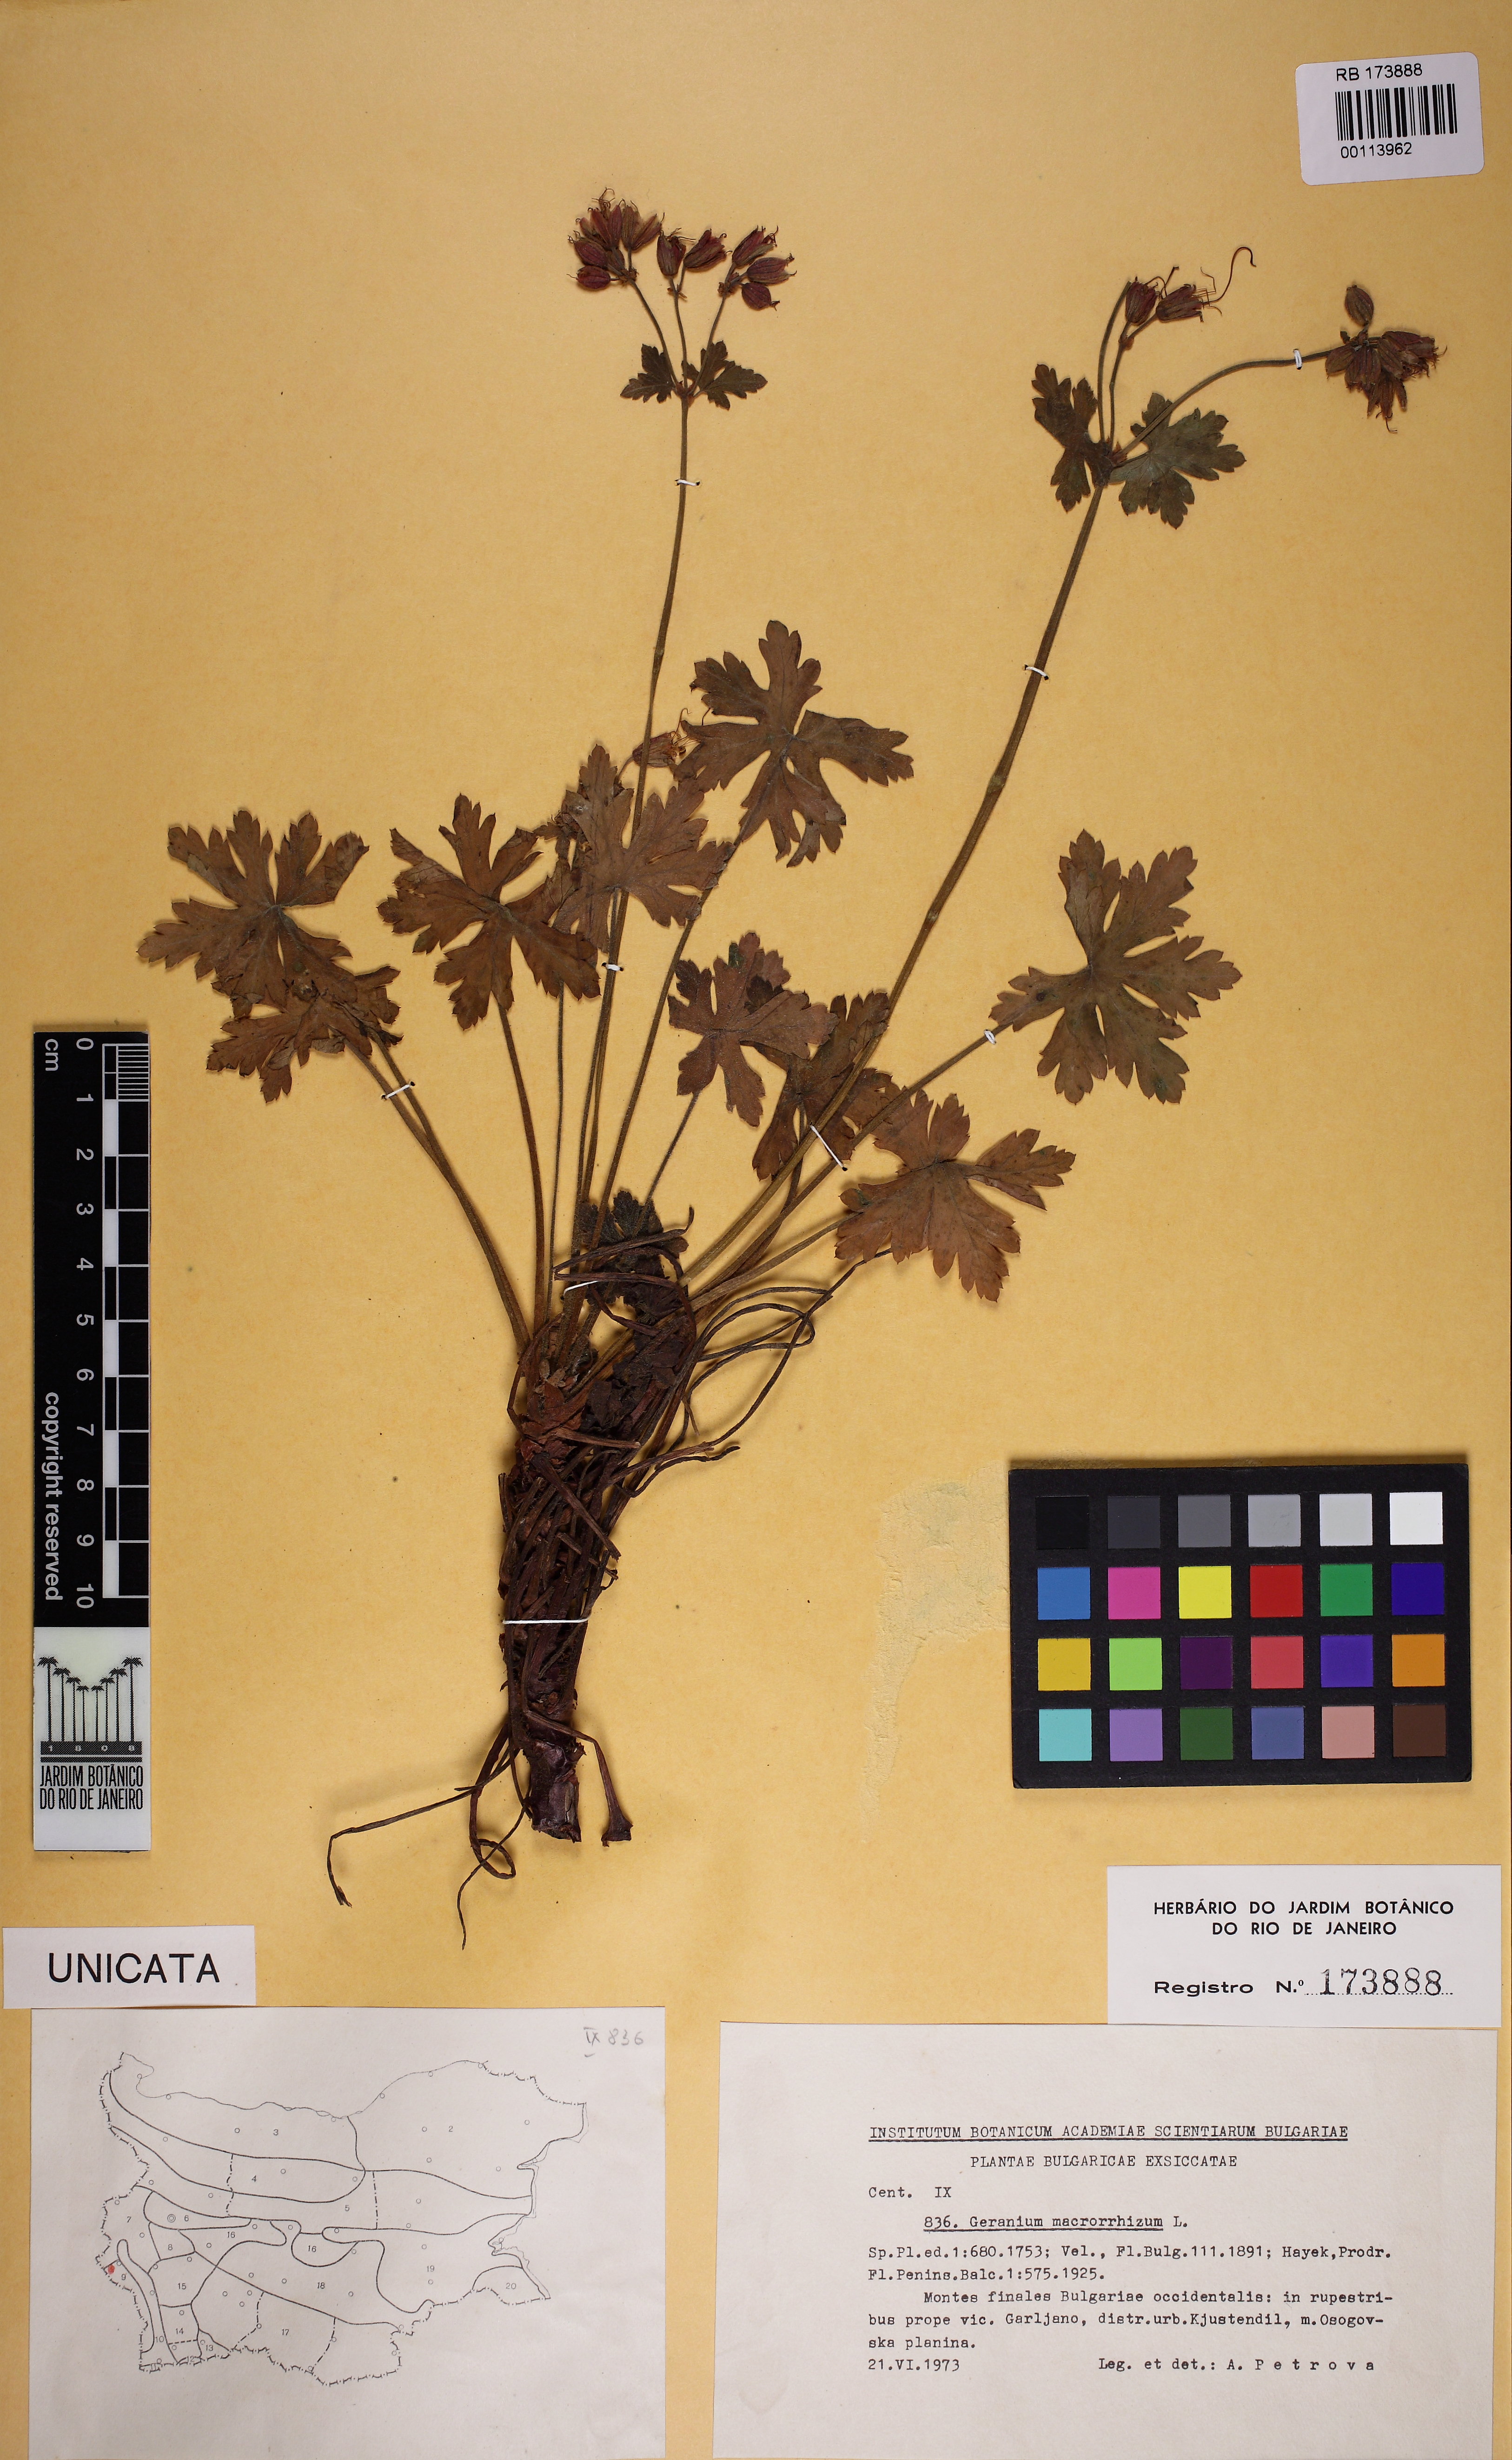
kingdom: Plantae
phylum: Tracheophyta
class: Magnoliopsida
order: Geraniales
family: Geraniaceae
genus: Geranium
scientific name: Geranium macrorrhizum
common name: Rock crane's-bill
